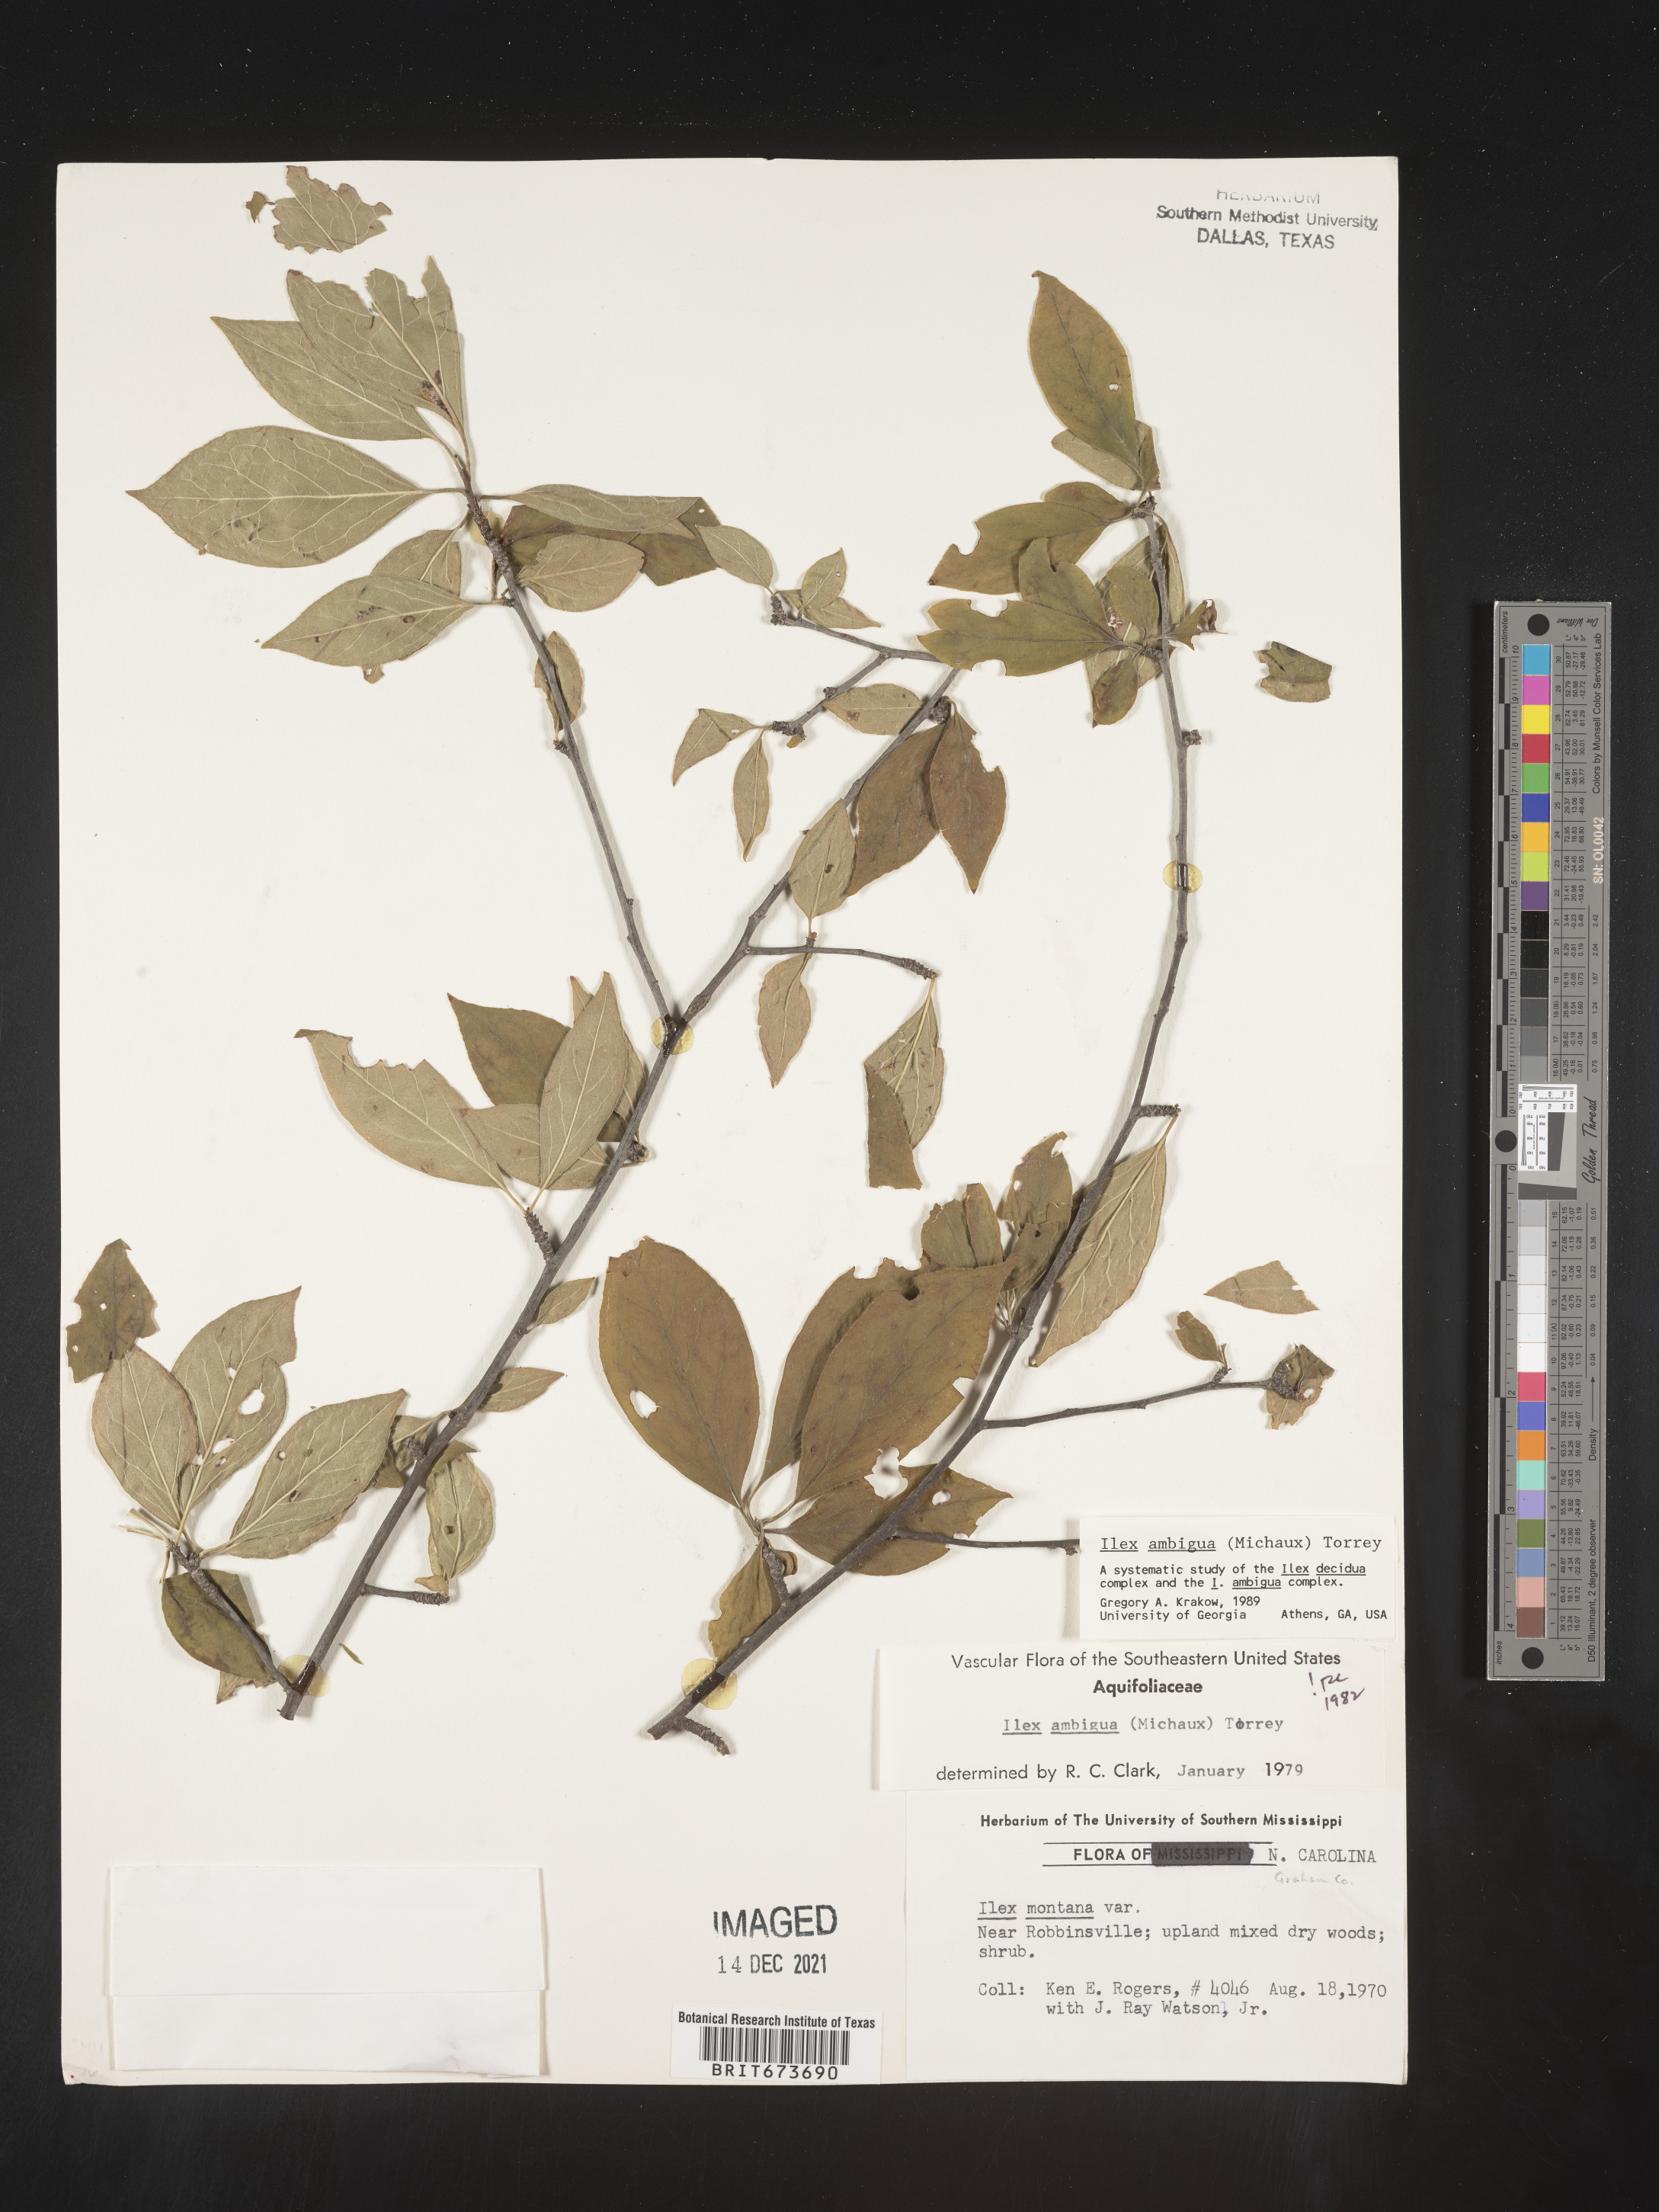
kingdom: Plantae
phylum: Tracheophyta
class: Magnoliopsida
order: Aquifoliales
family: Aquifoliaceae
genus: Ilex
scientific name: Ilex ambigua
